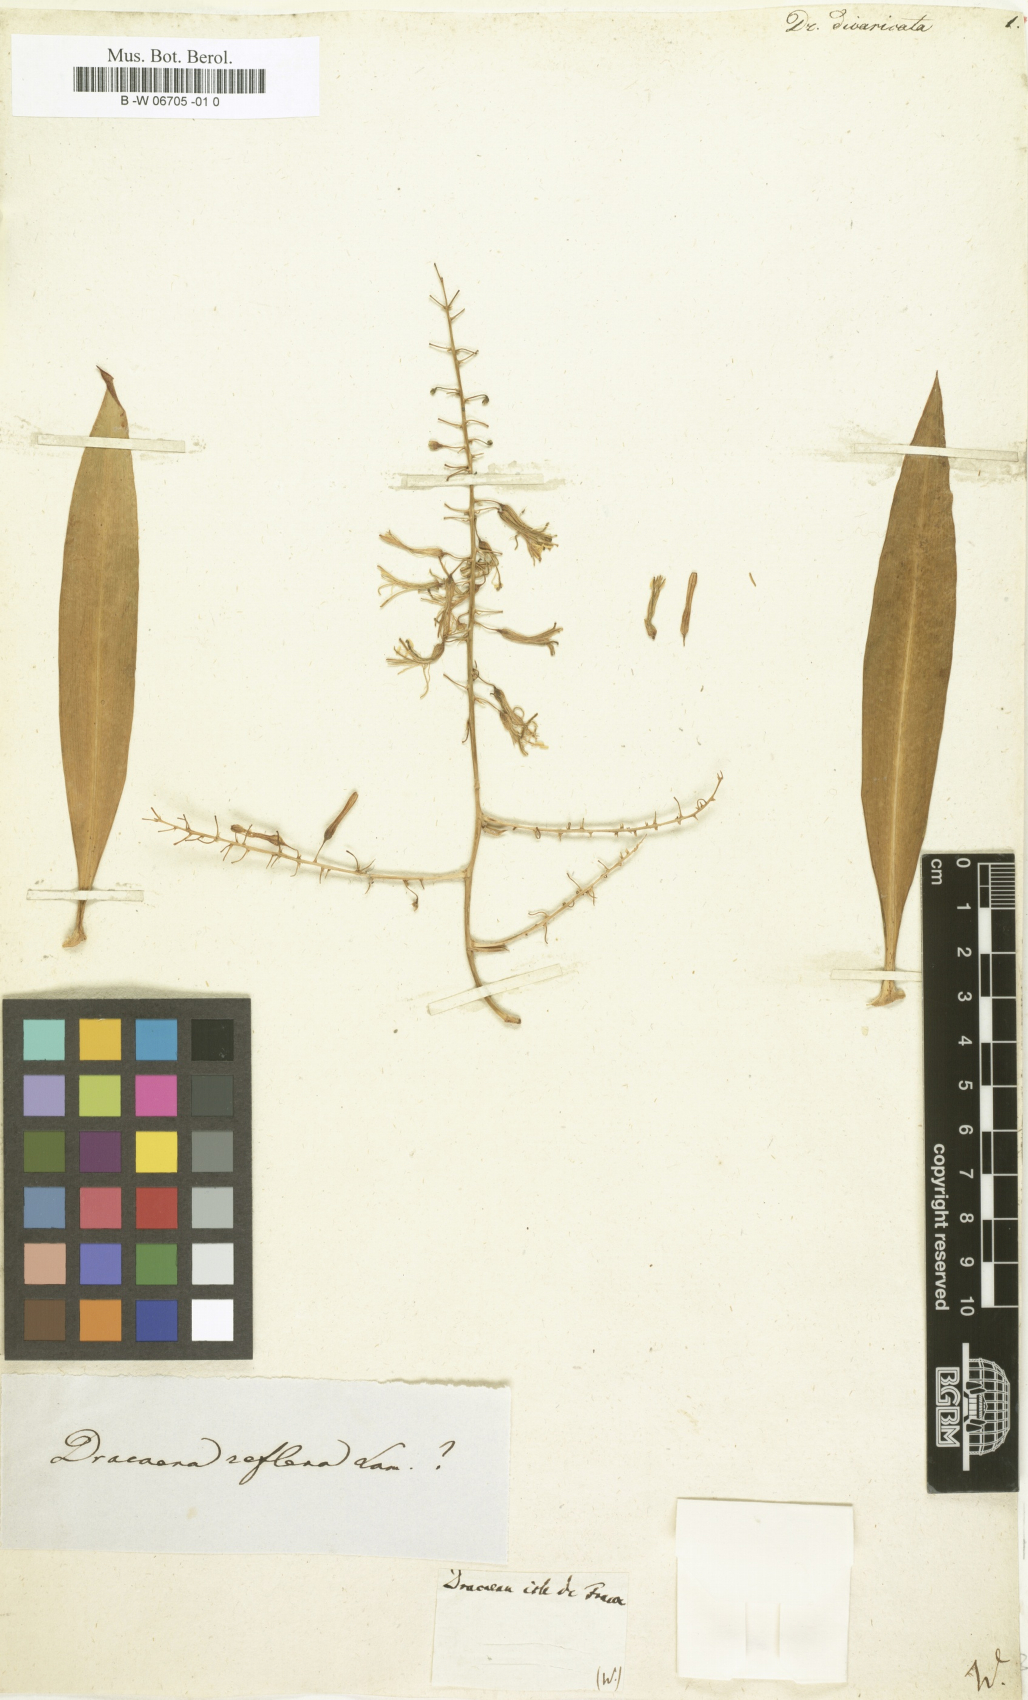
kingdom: Plantae
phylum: Tracheophyta
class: Liliopsida
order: Asparagales
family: Asparagaceae
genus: Dracaena
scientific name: Dracaena reflexa
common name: Song-of-india
